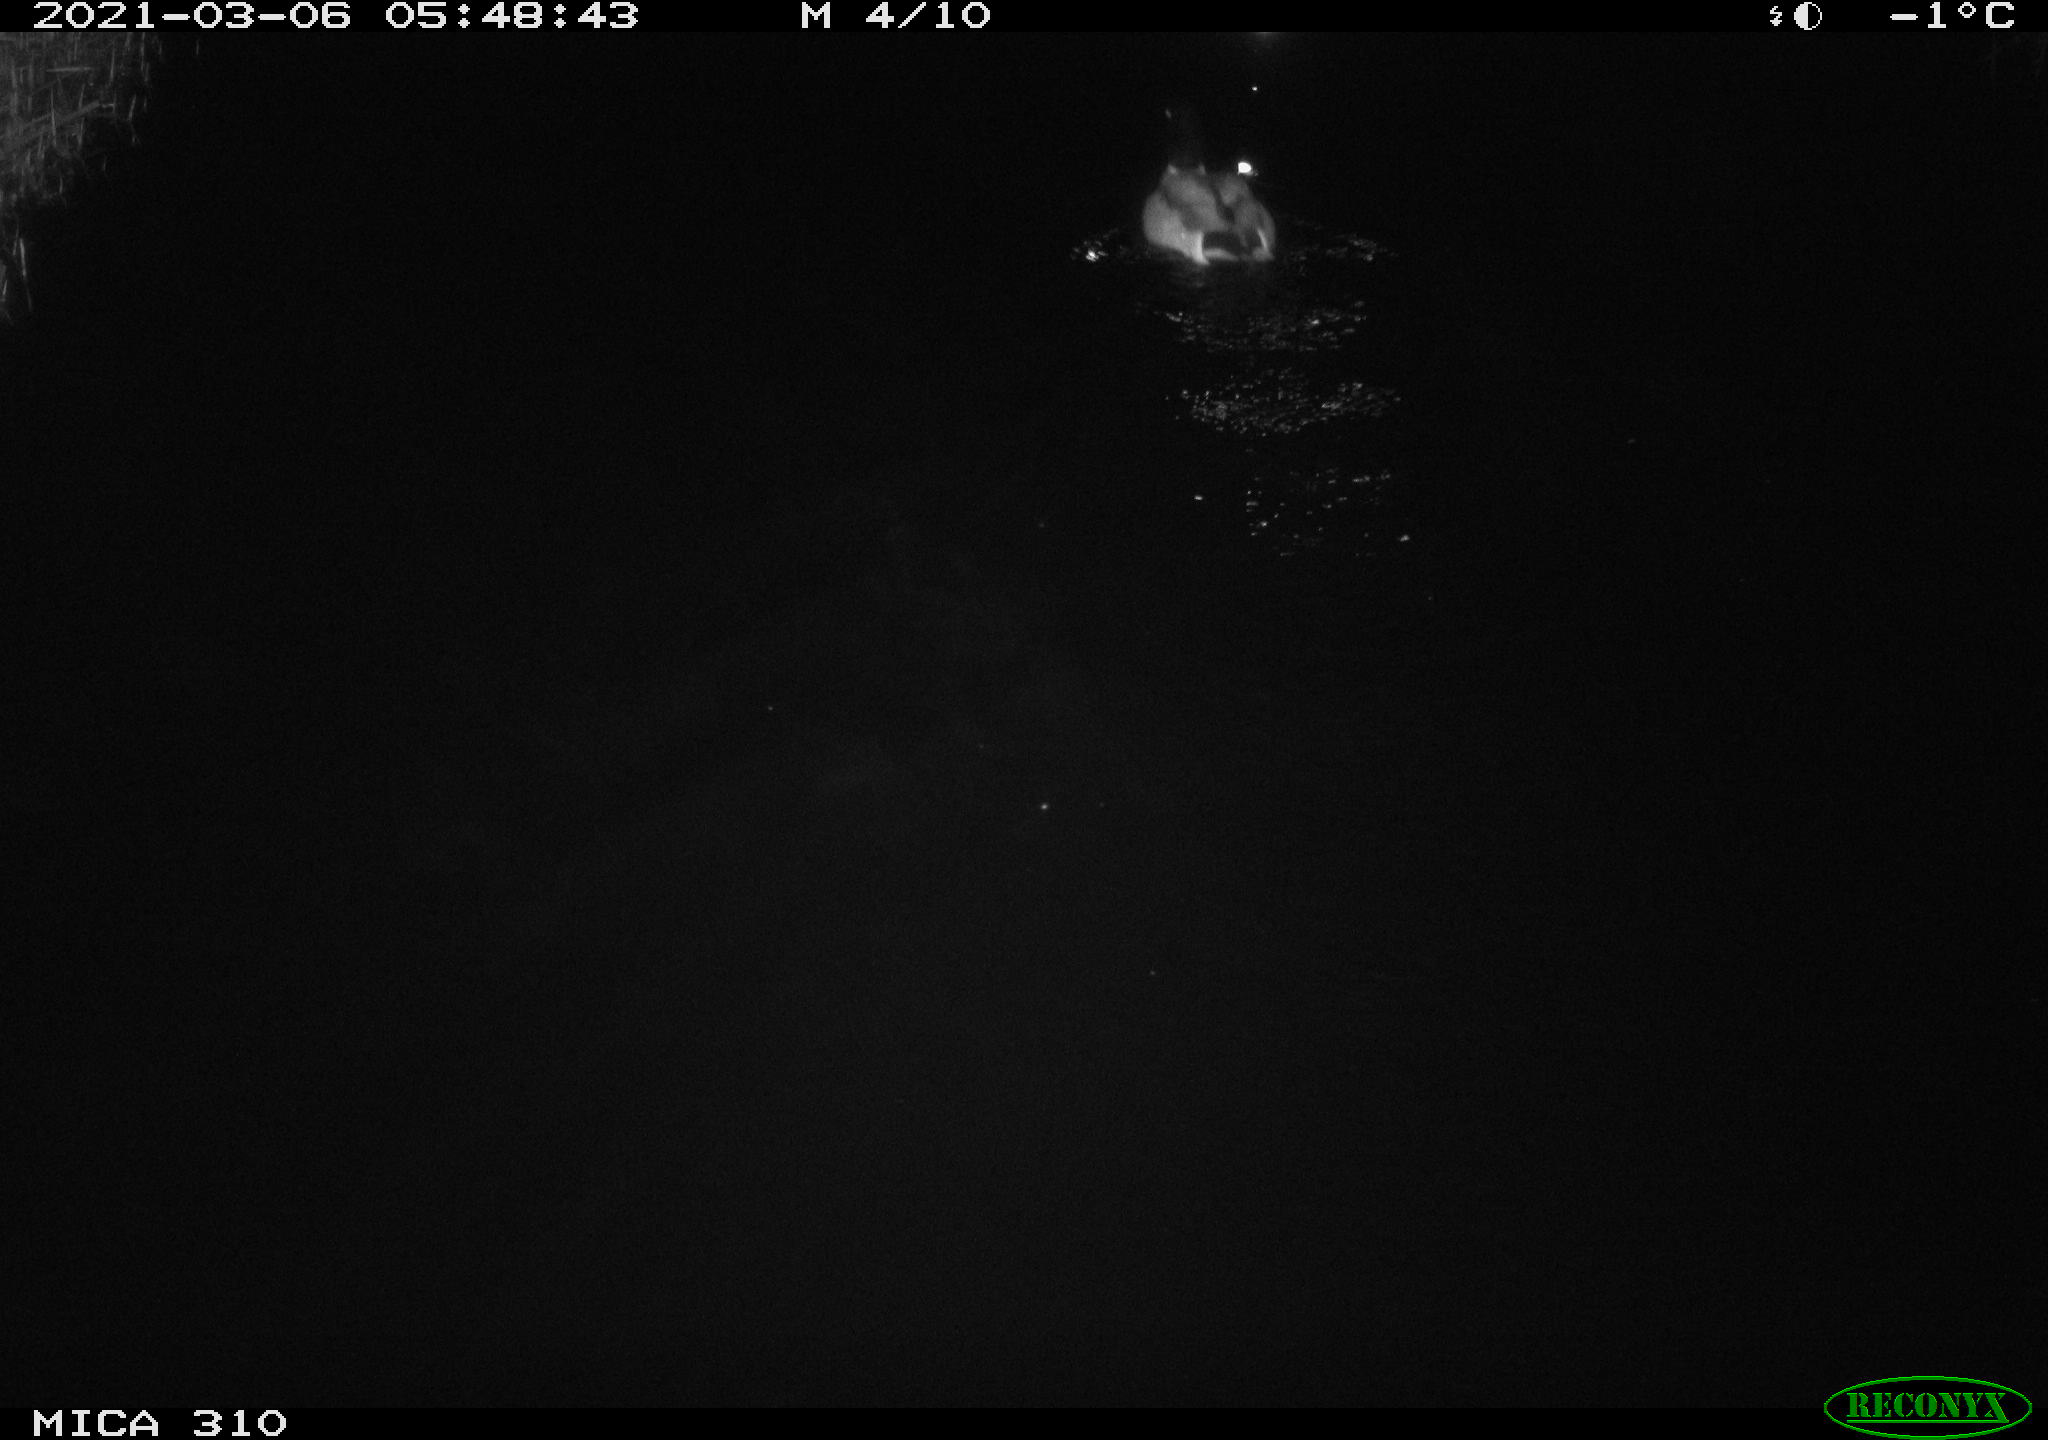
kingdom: Animalia
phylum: Chordata
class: Aves
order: Anseriformes
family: Anatidae
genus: Anas
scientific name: Anas platyrhynchos
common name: Mallard
